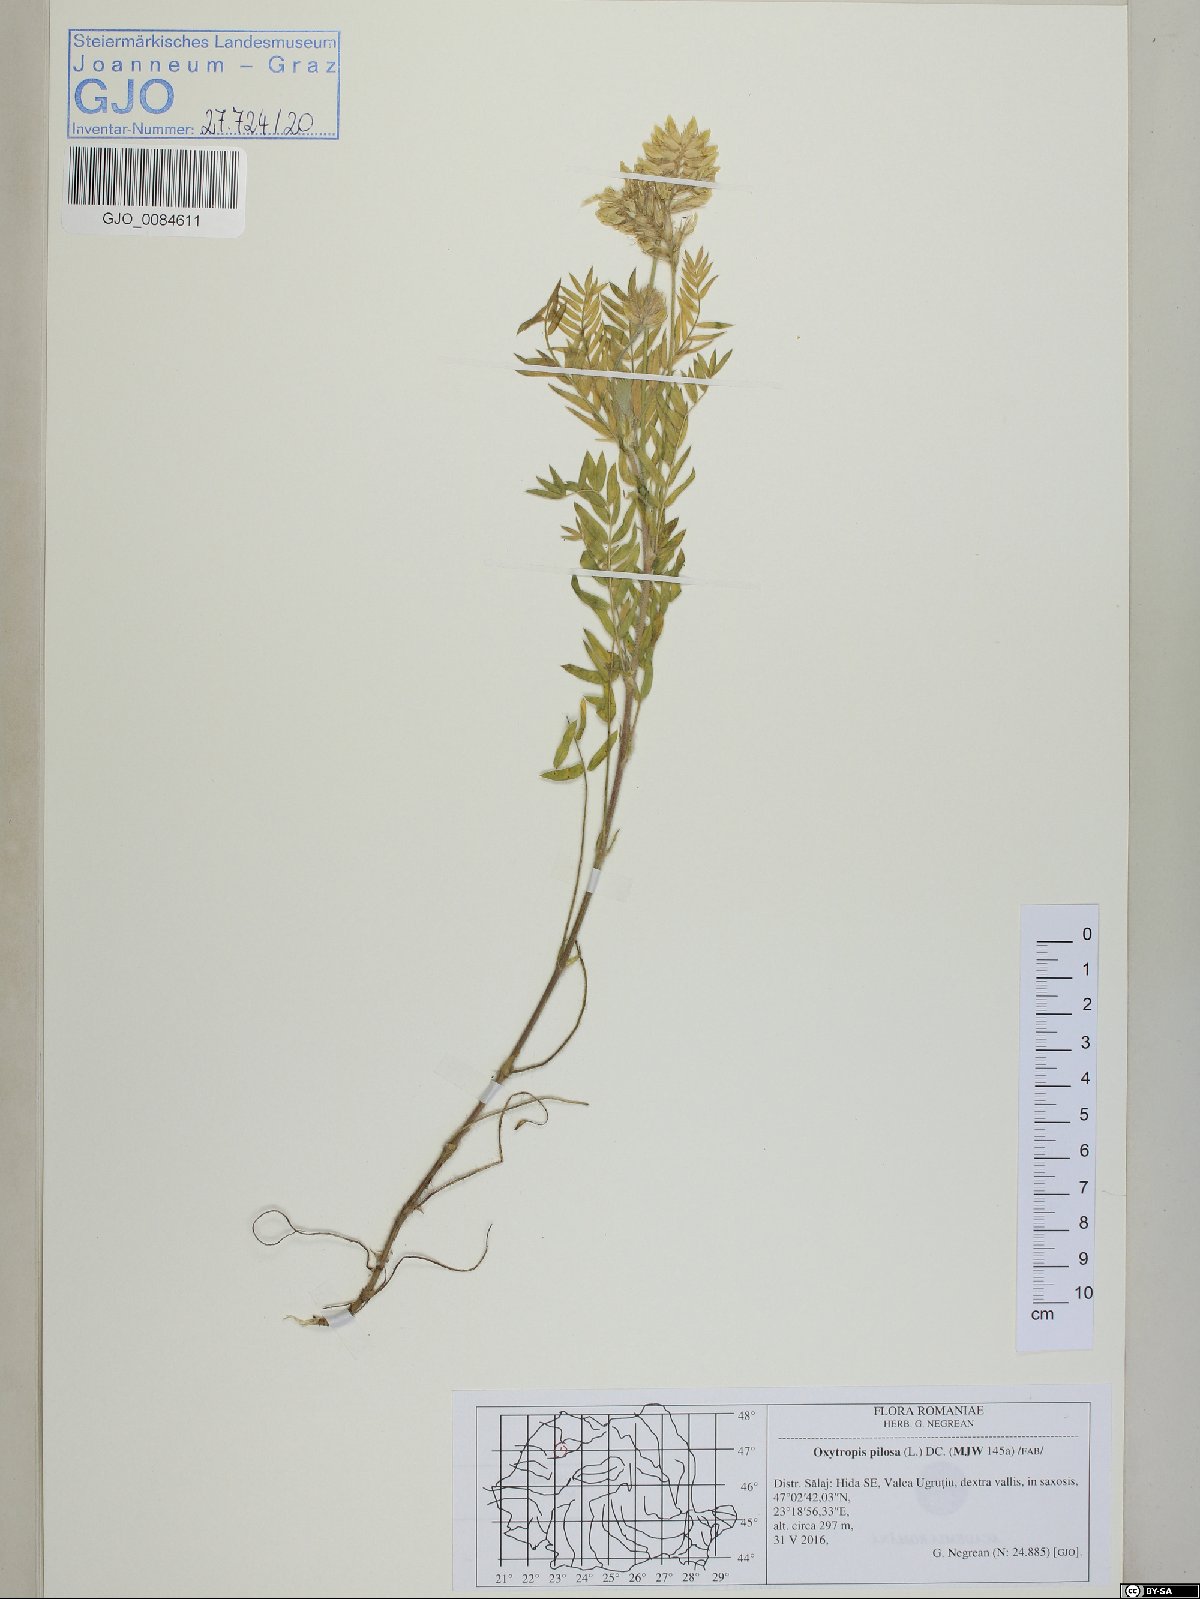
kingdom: Plantae
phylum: Tracheophyta
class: Magnoliopsida
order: Fabales
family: Fabaceae
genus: Oxytropis
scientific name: Oxytropis pilosa
